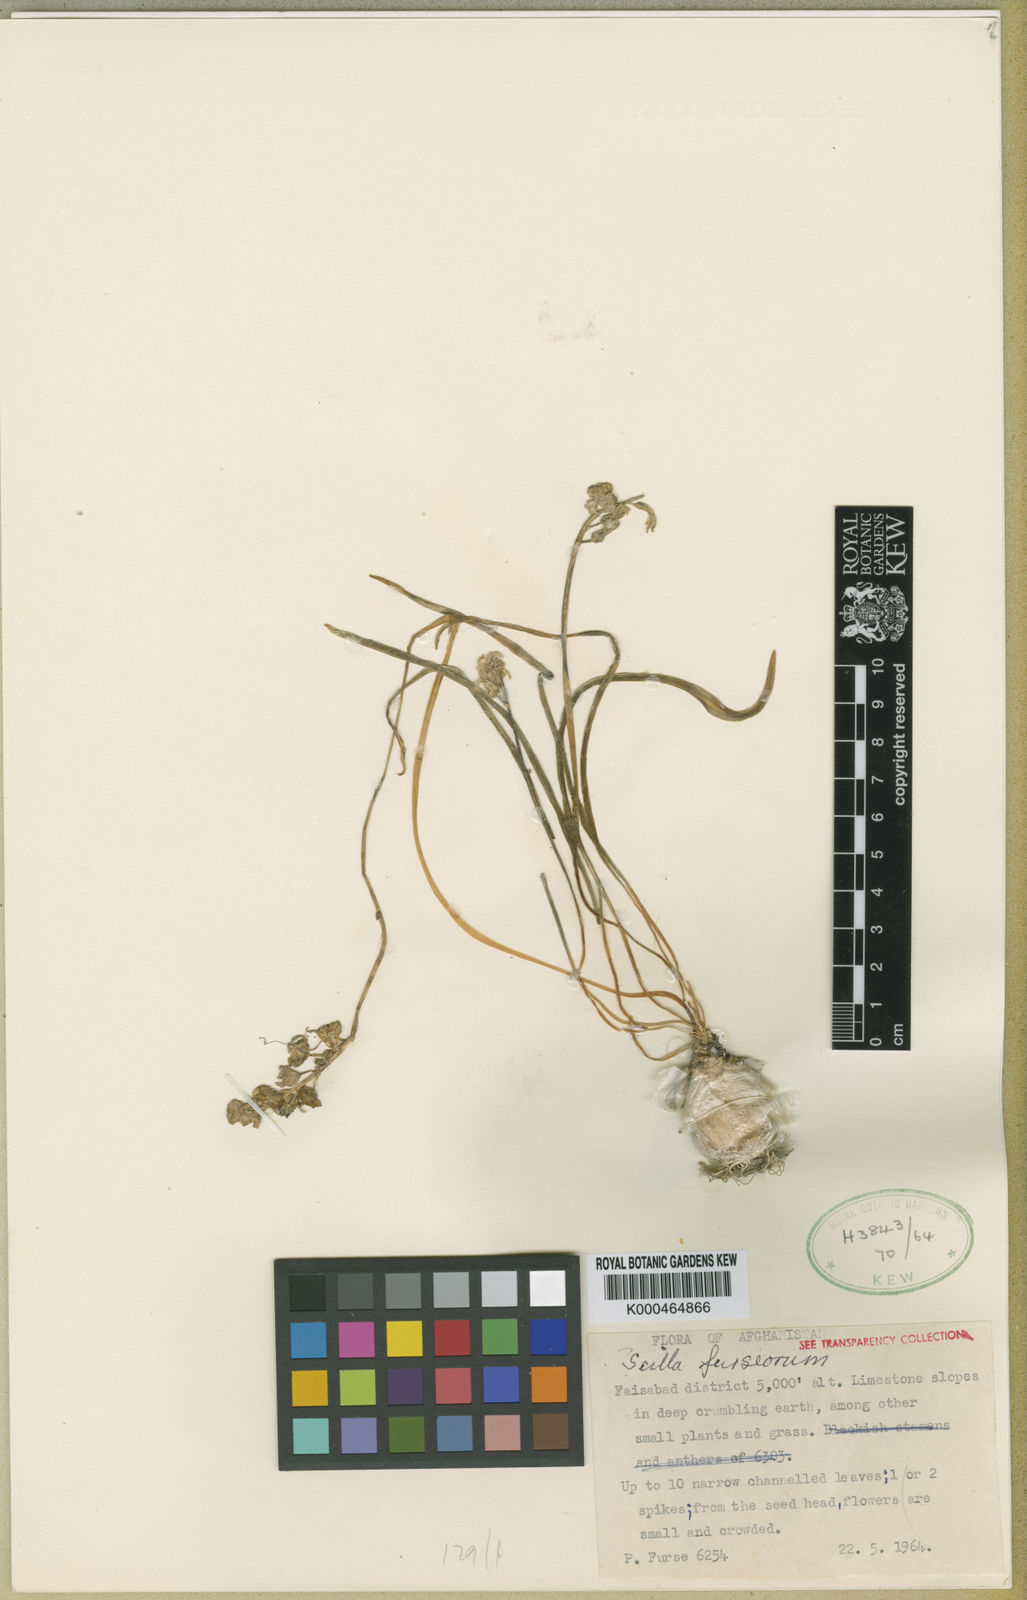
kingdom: Plantae
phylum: Tracheophyta
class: Liliopsida
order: Asparagales
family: Asparagaceae
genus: Fessia
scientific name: Fessia furseorum
